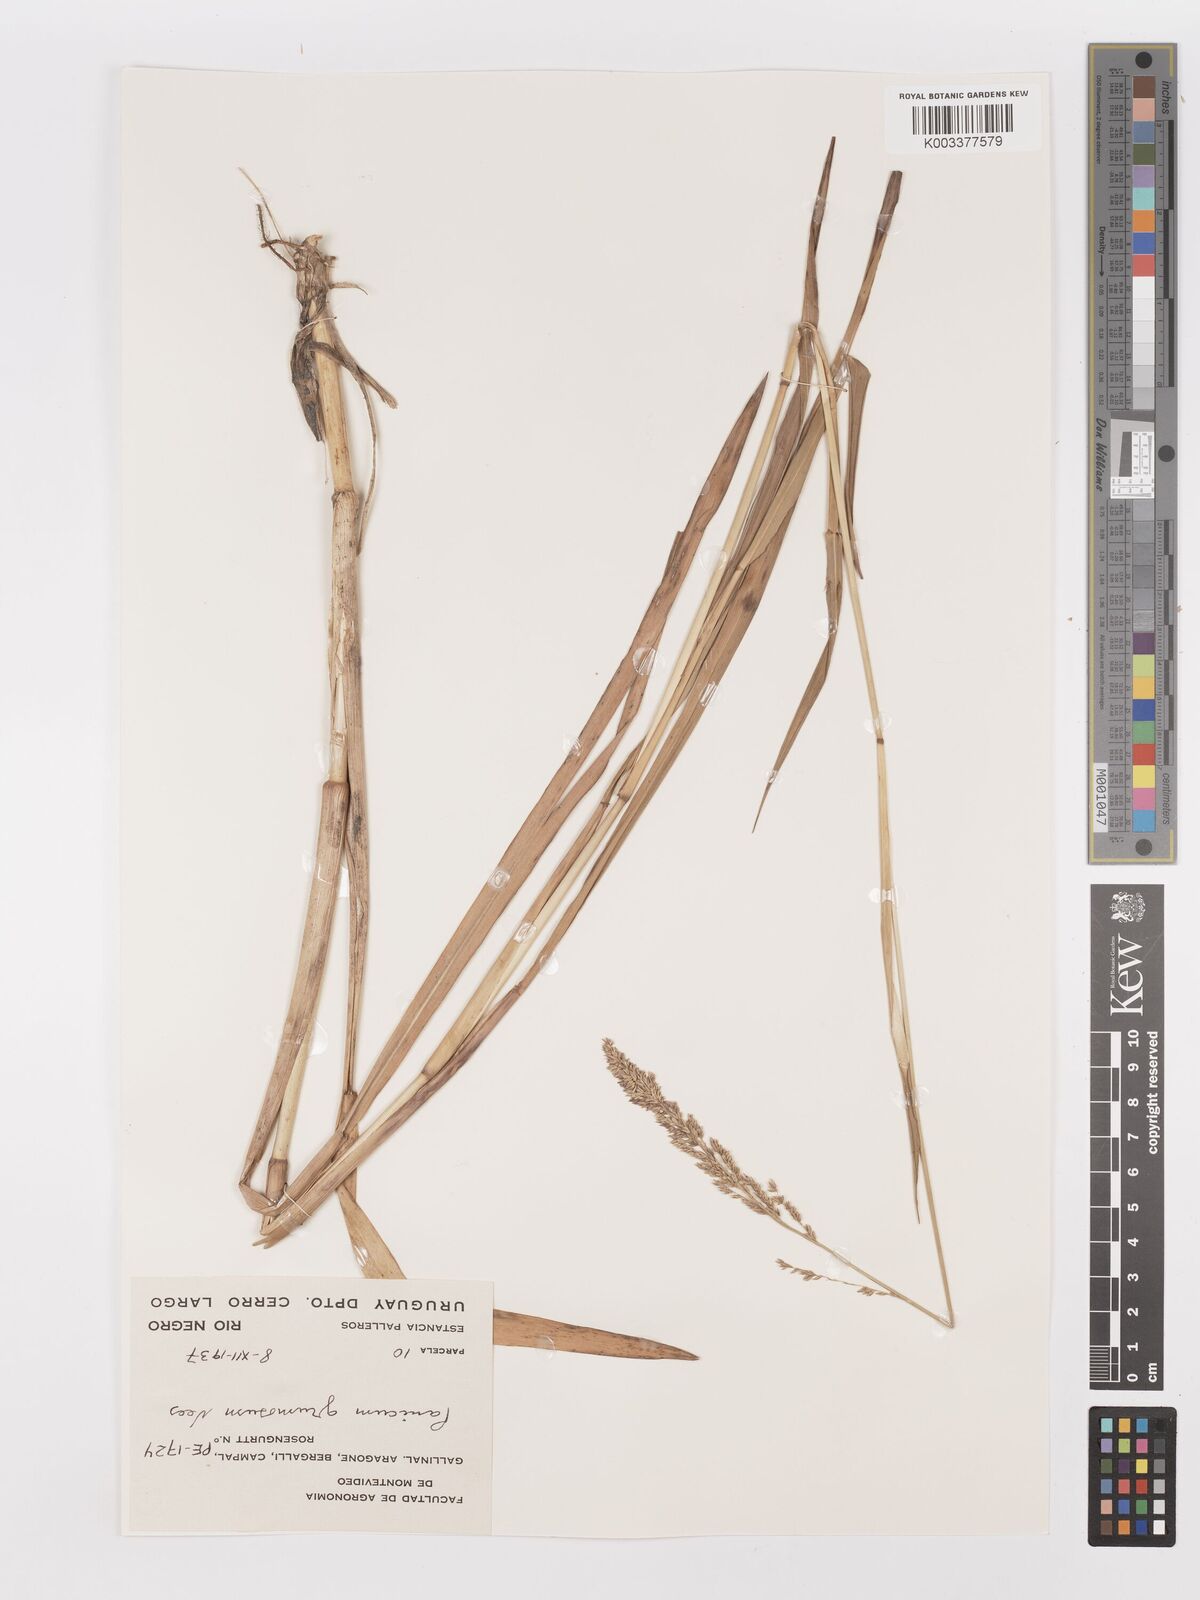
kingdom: Plantae
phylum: Tracheophyta
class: Liliopsida
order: Poales
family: Poaceae
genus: Urochloa
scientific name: Urochloa reptans
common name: Sprawling signalgrass
